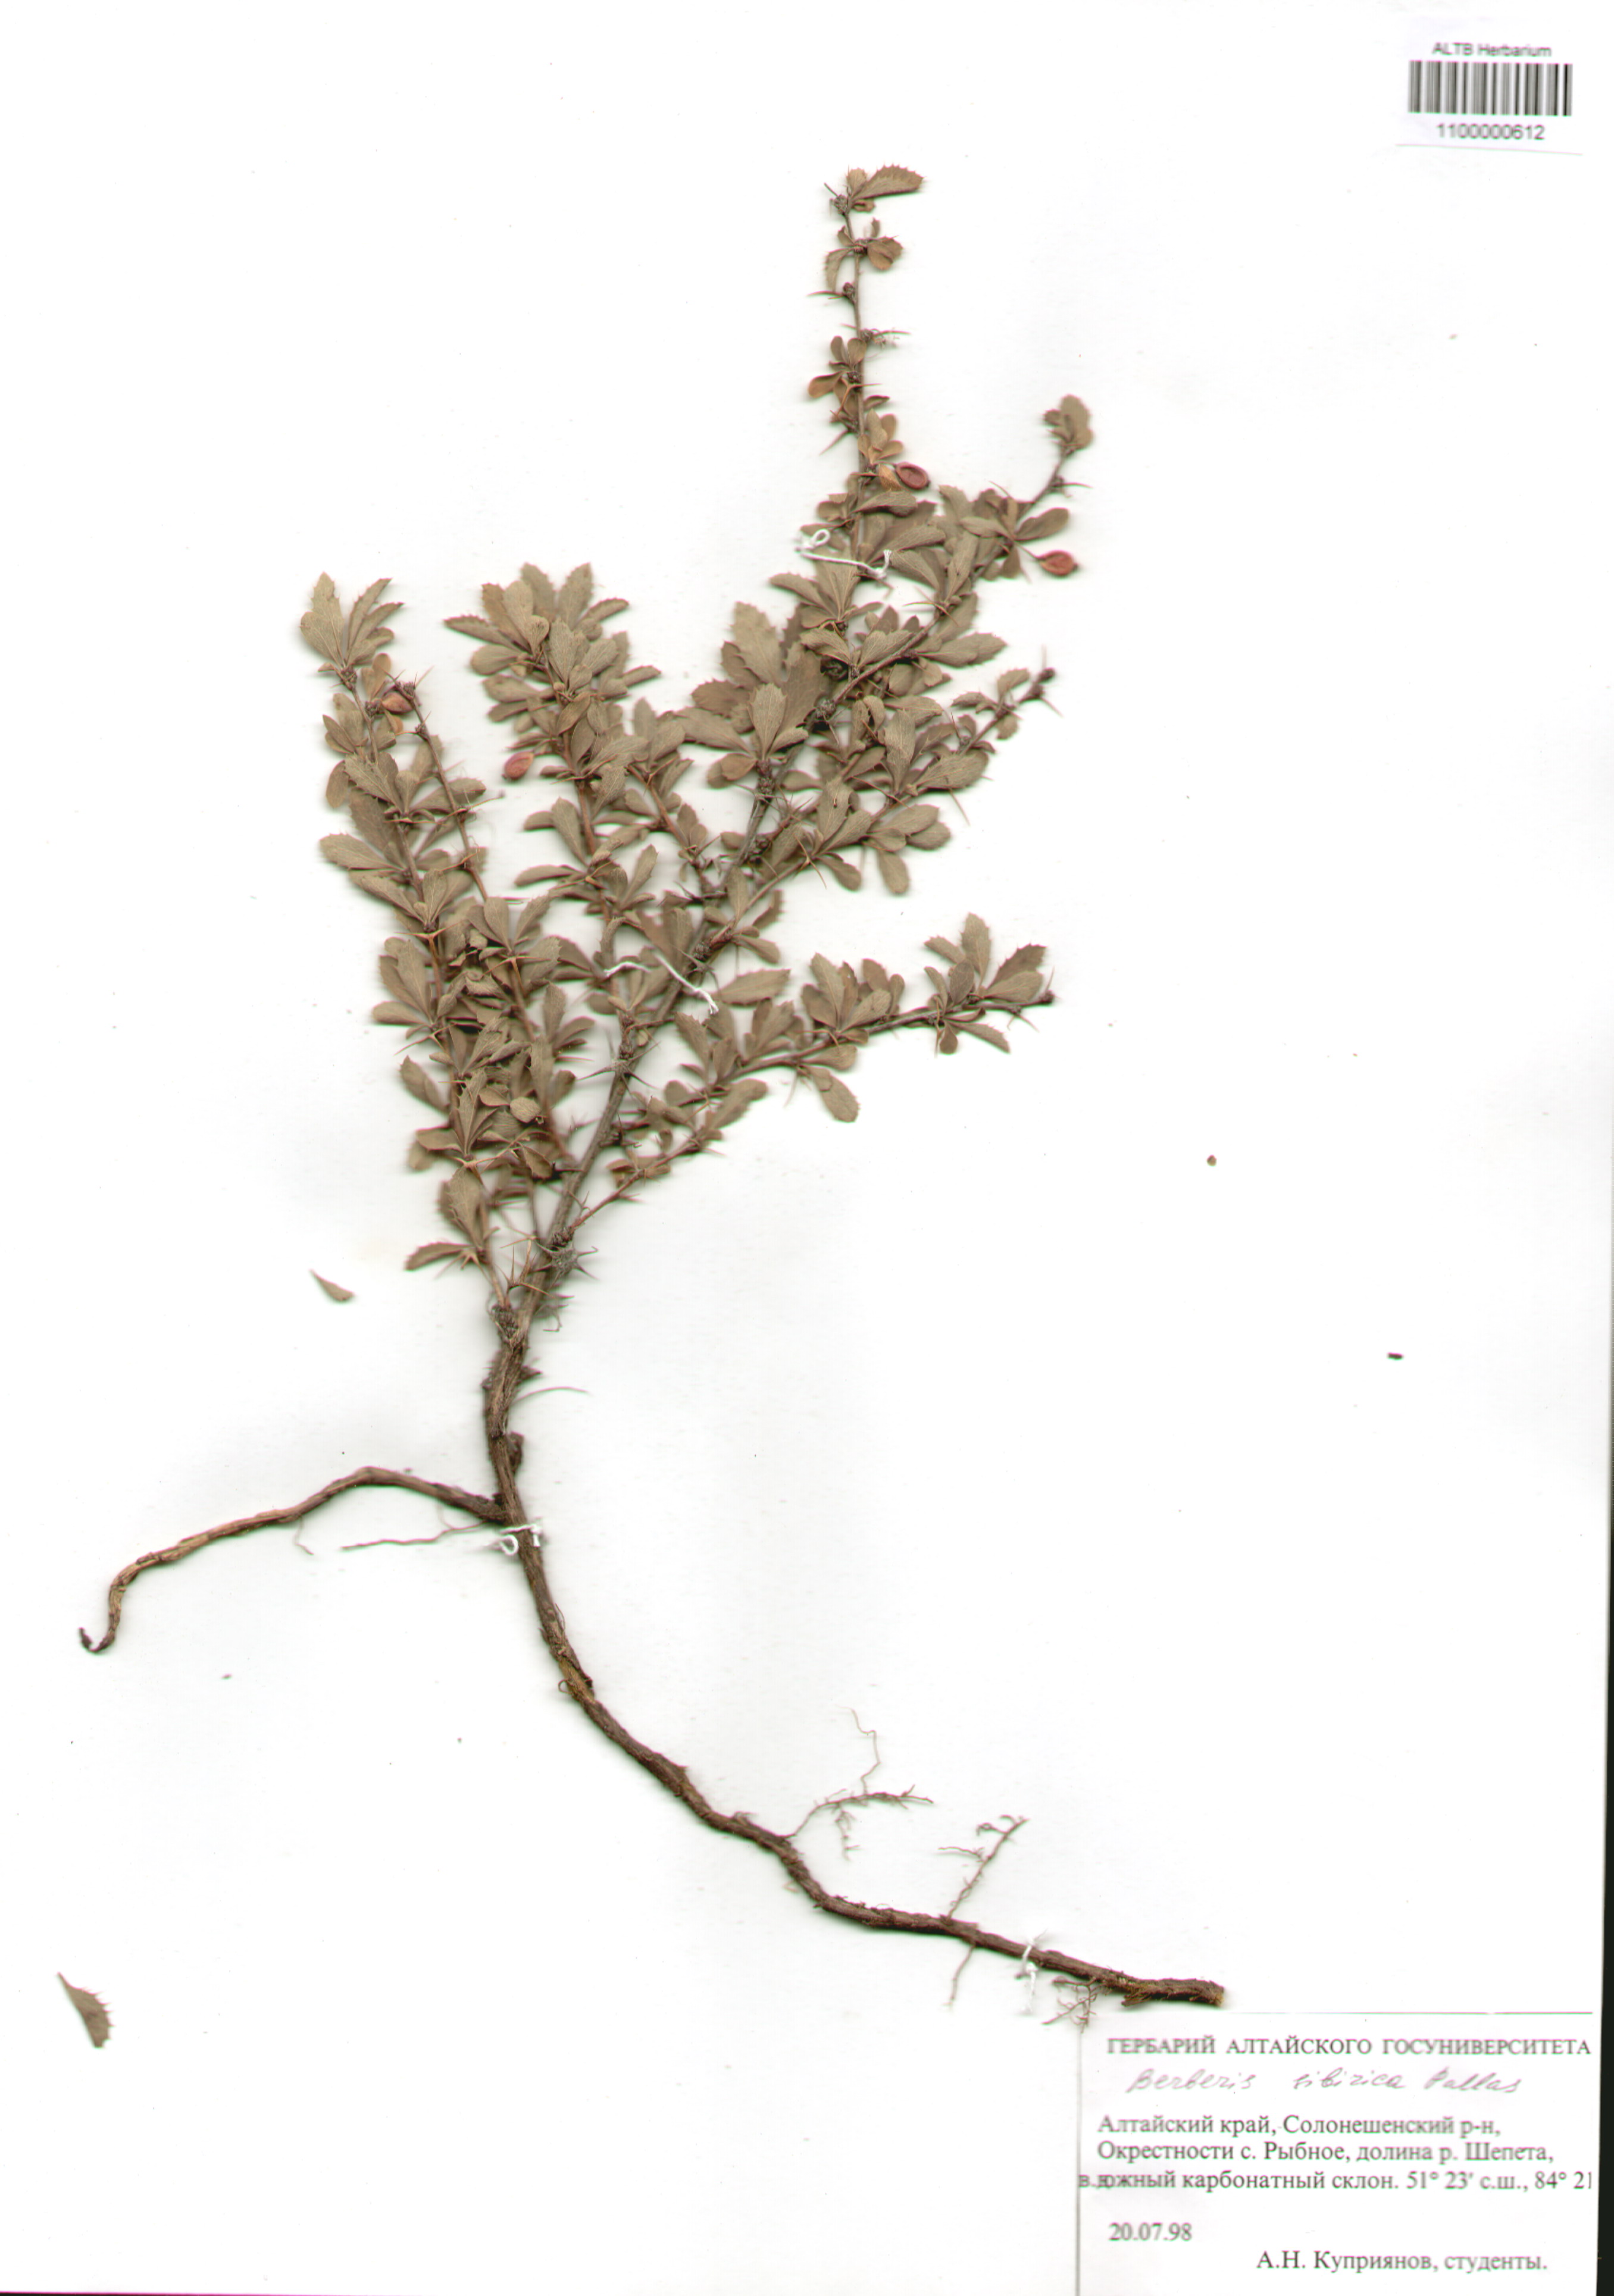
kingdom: Plantae
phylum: Tracheophyta
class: Magnoliopsida
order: Ranunculales
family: Berberidaceae
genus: Berberis
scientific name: Berberis sibirica
